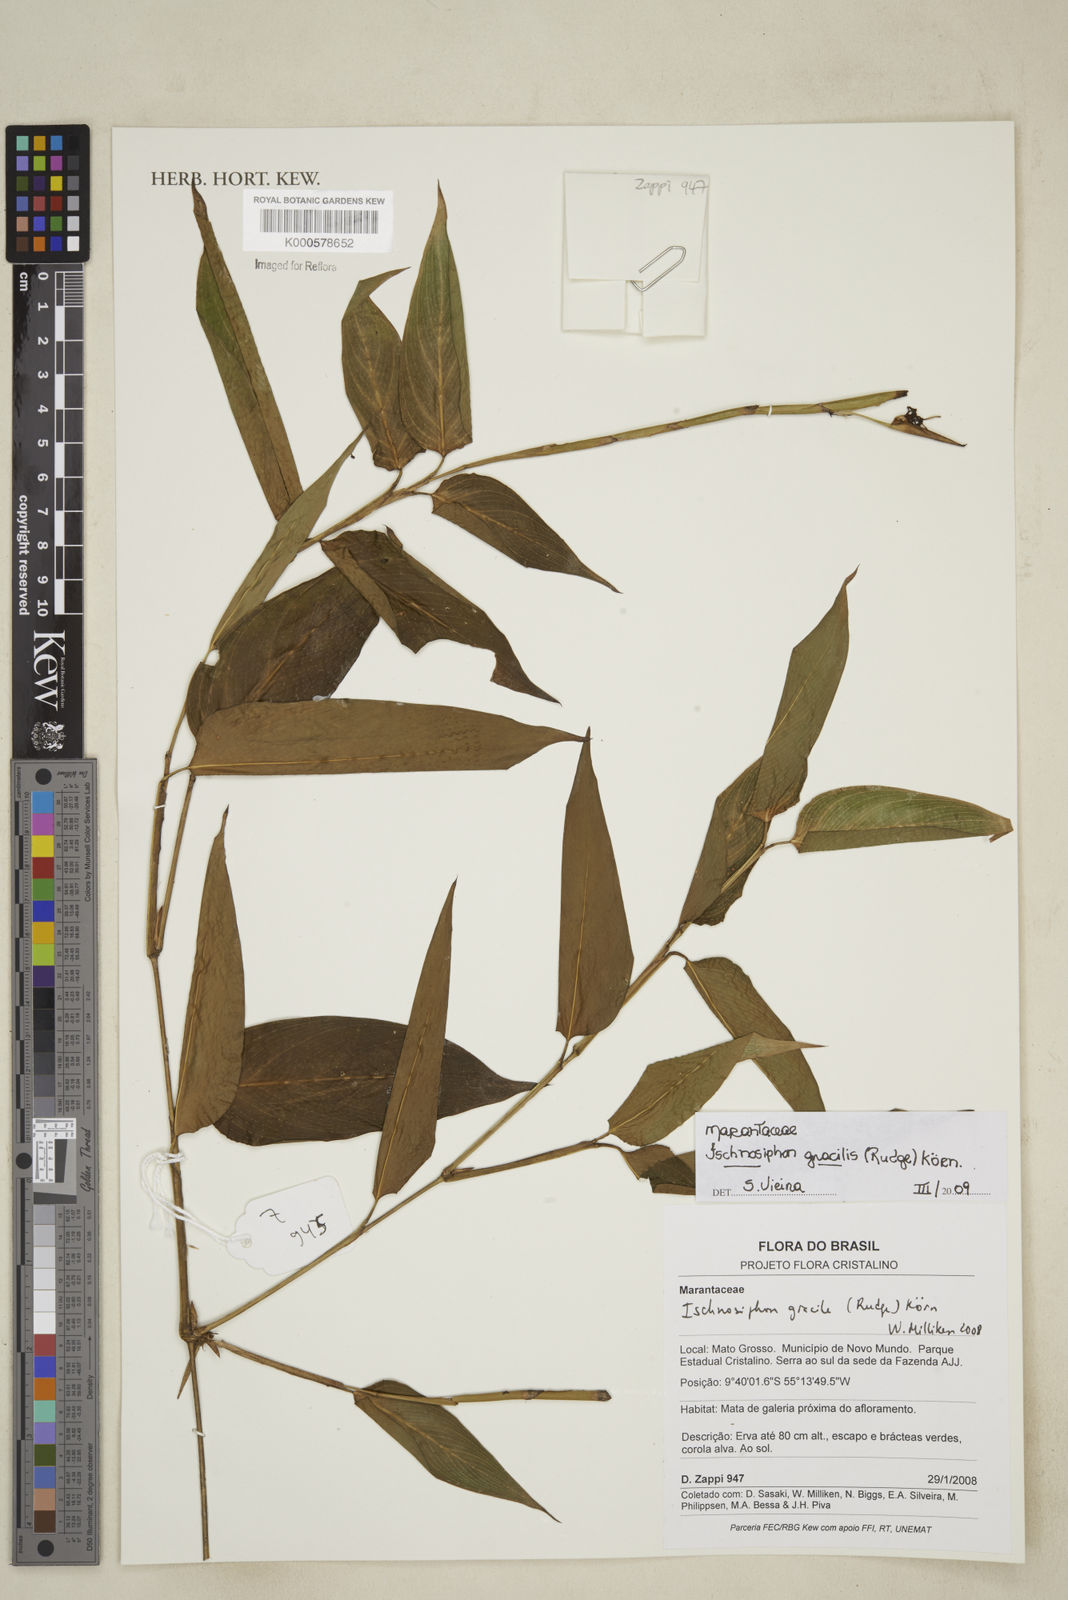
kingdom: Plantae
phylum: Tracheophyta
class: Liliopsida
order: Zingiberales
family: Marantaceae
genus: Ischnosiphon
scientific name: Ischnosiphon
